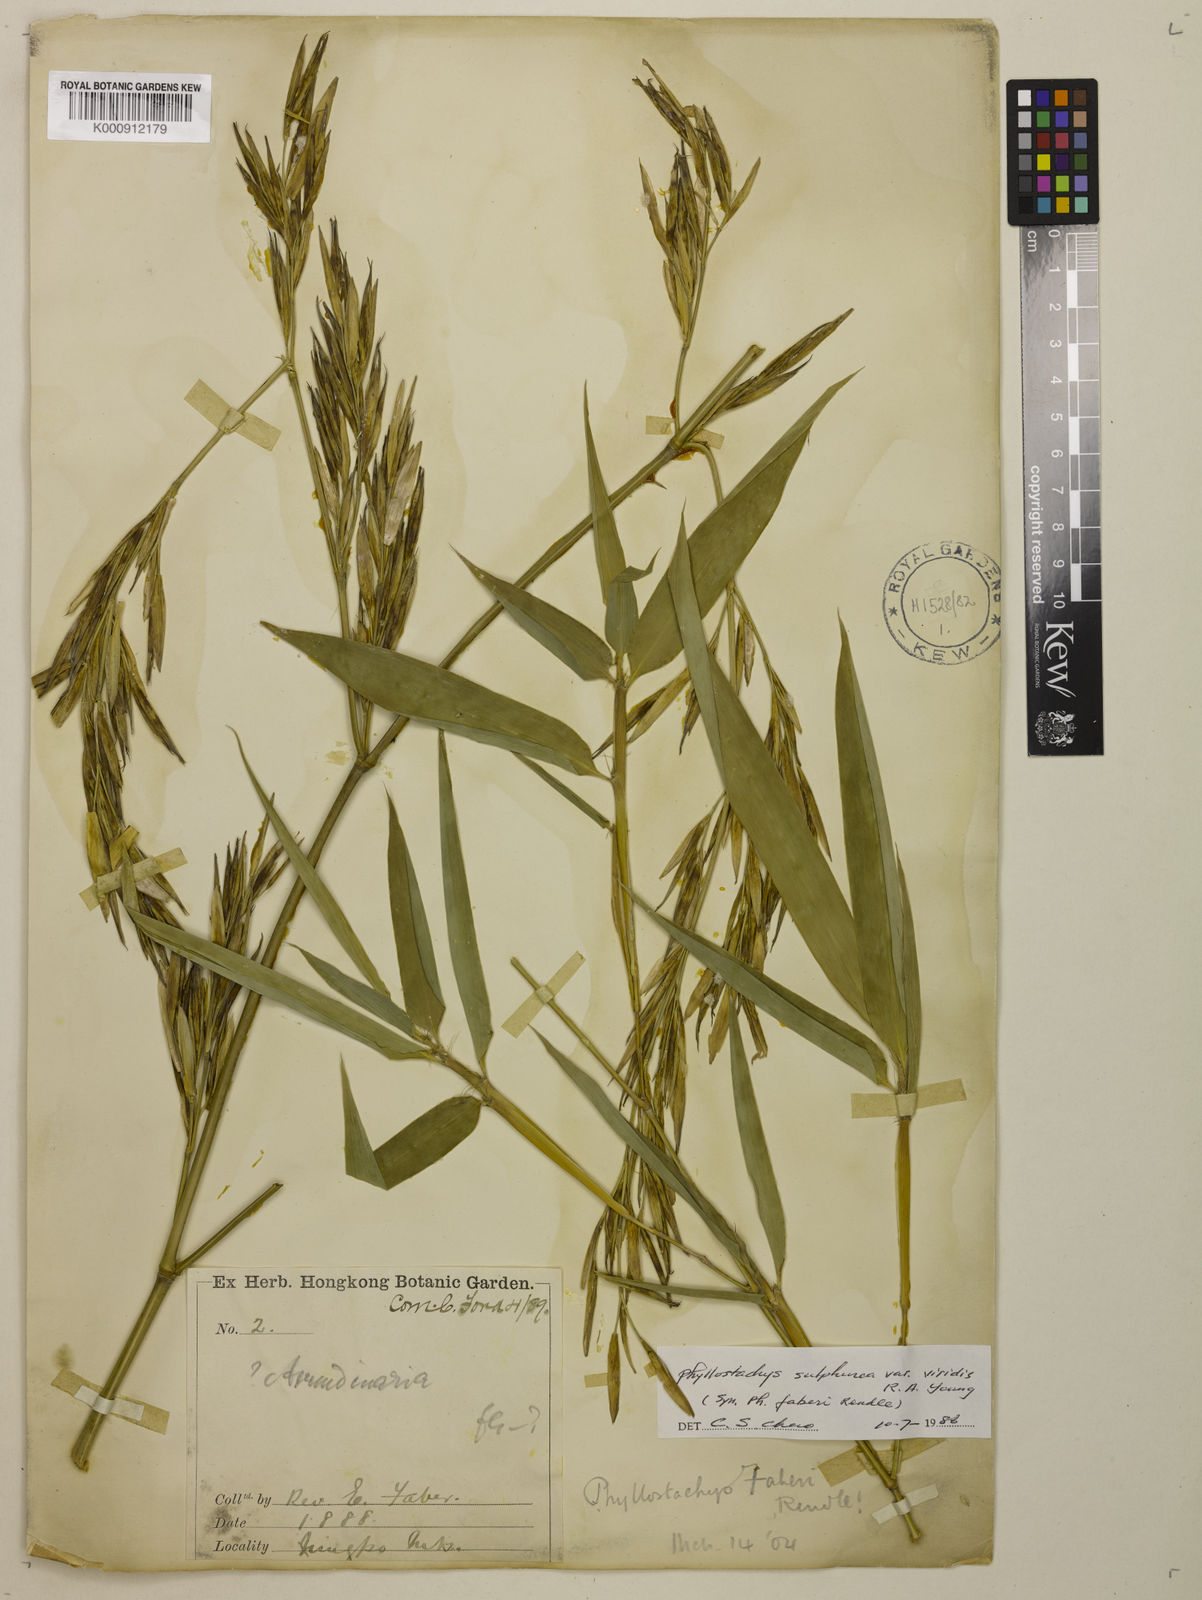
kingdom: Plantae
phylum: Tracheophyta
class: Liliopsida
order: Poales
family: Poaceae
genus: Phyllostachys
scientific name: Phyllostachys
